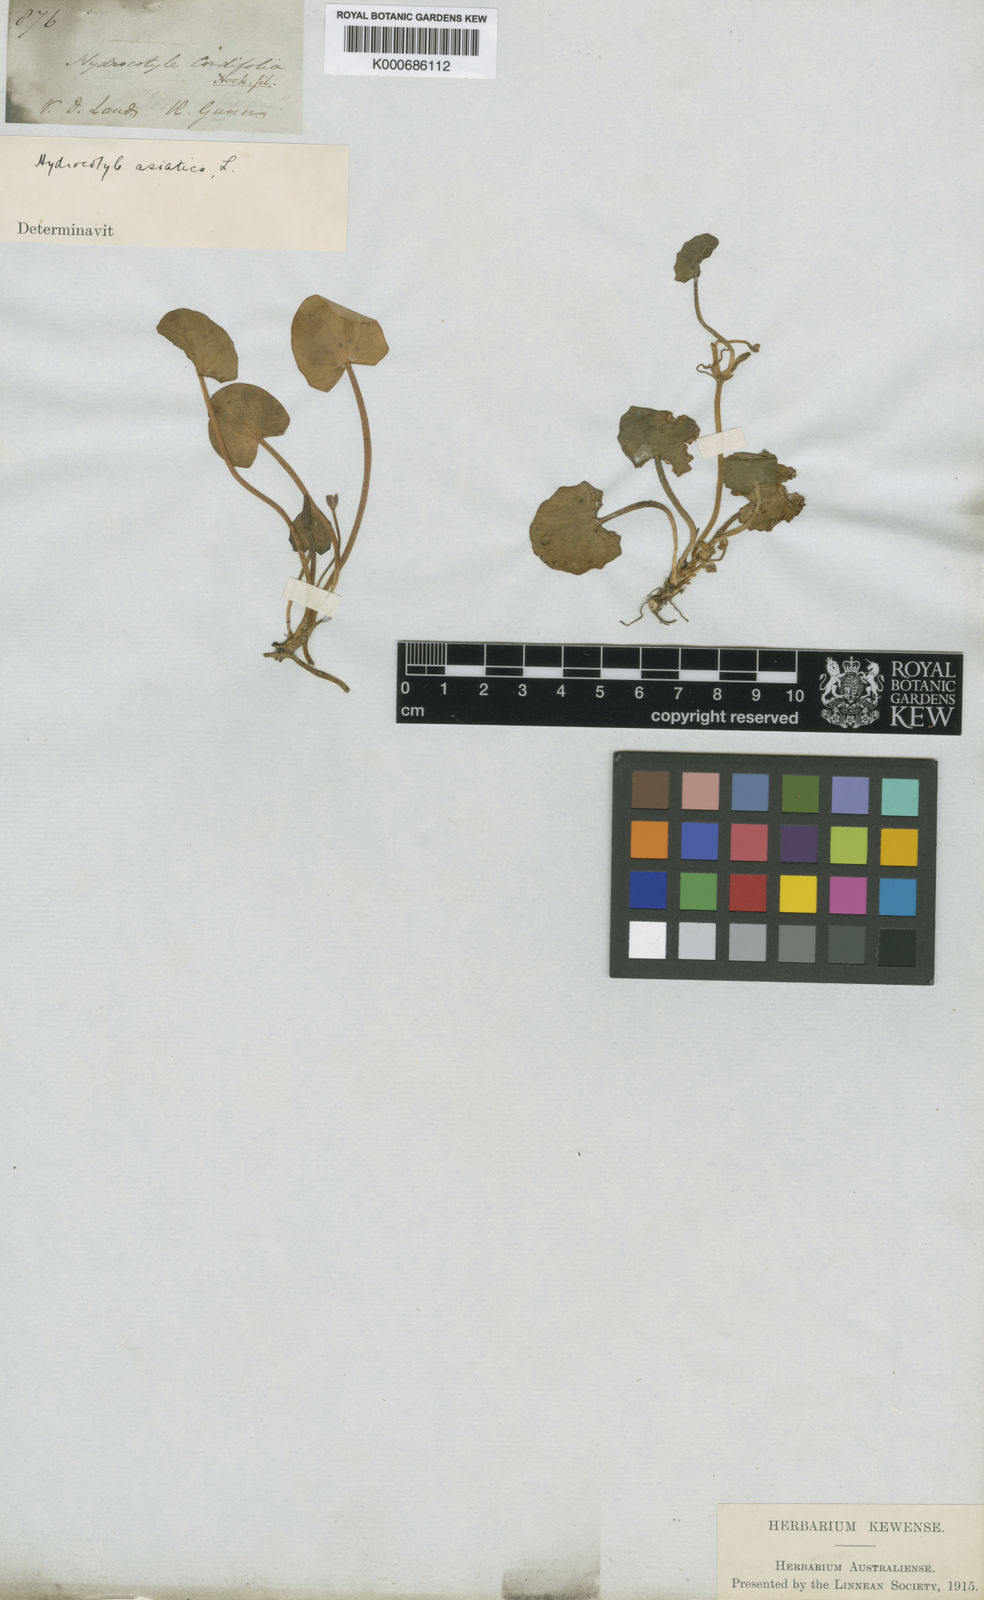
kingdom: Plantae
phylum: Tracheophyta
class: Magnoliopsida
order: Apiales
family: Apiaceae
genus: Centella
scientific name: Centella cordifolia
